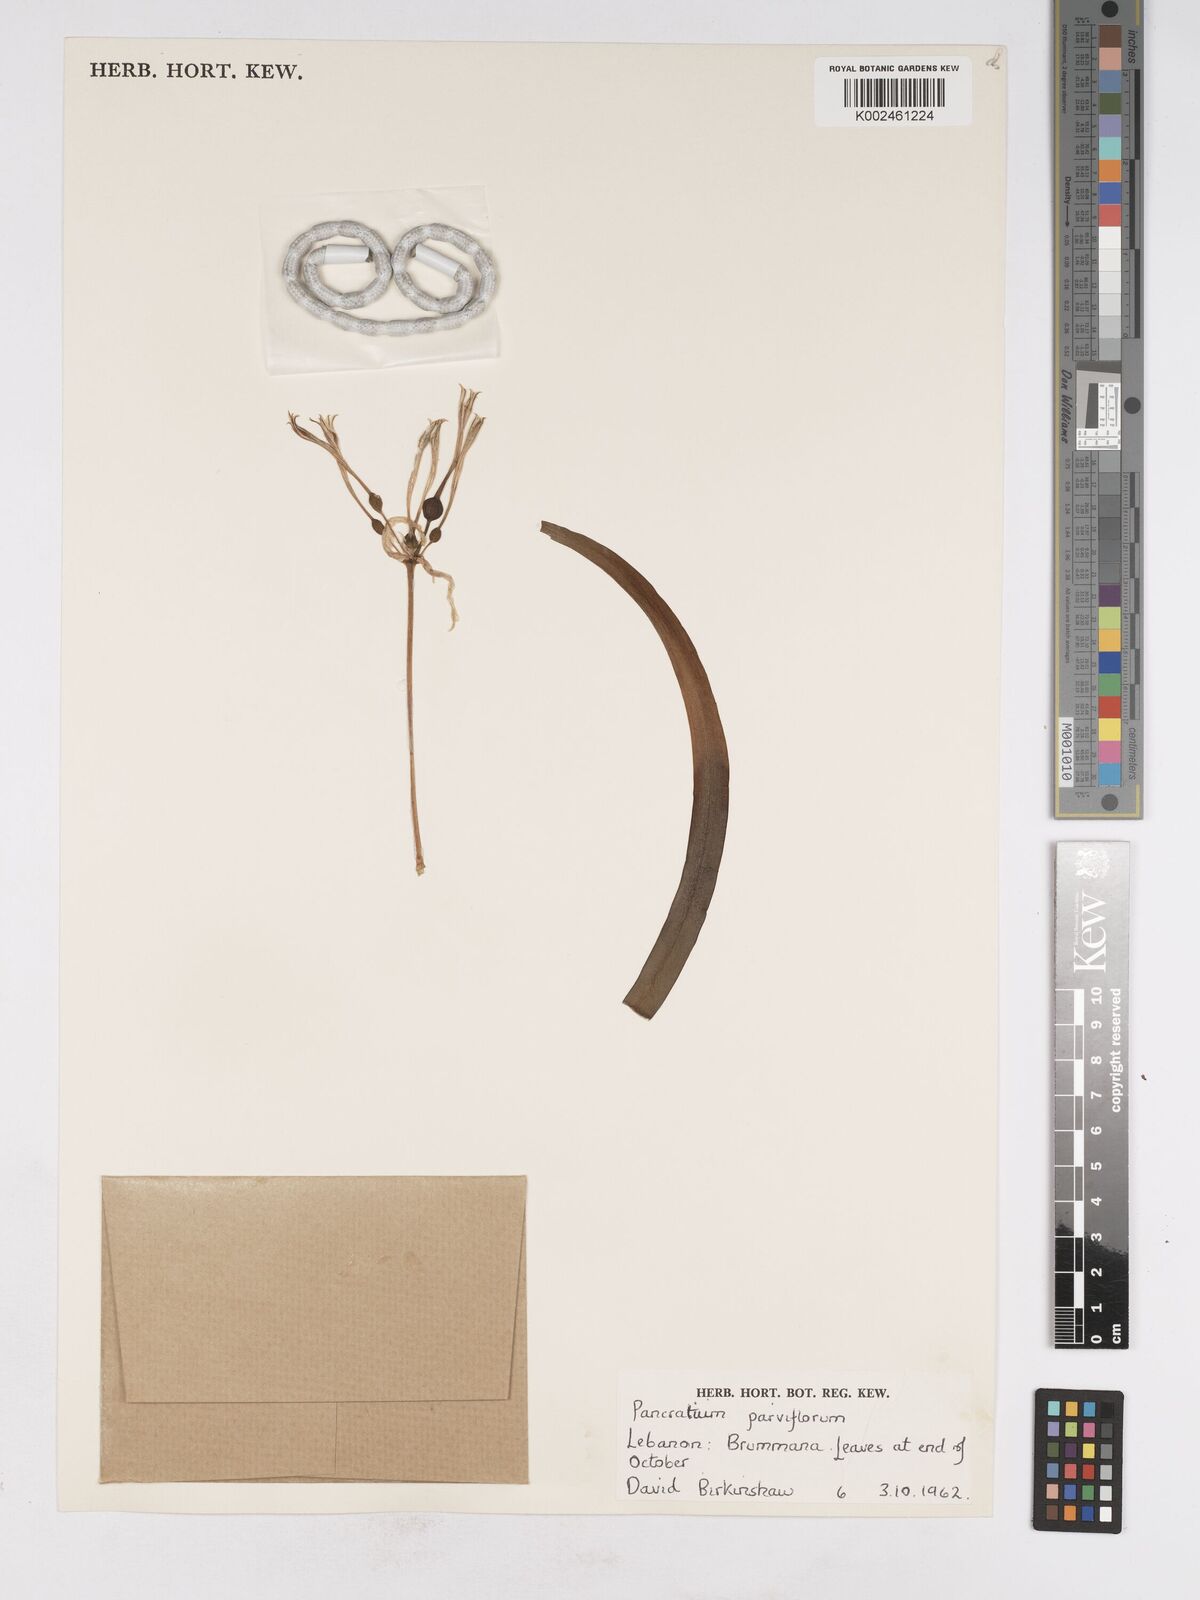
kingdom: Plantae
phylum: Tracheophyta
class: Liliopsida
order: Asparagales
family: Amaryllidaceae
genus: Vagaria
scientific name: Vagaria parviflora
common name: Small-flowered pancratium
